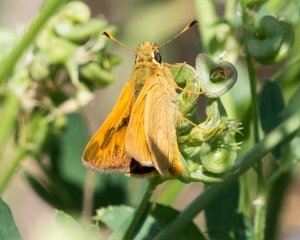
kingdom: Animalia
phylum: Arthropoda
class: Insecta
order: Lepidoptera
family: Hesperiidae
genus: Ochlodes
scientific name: Ochlodes sylvanoides
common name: Woodland Skipper
